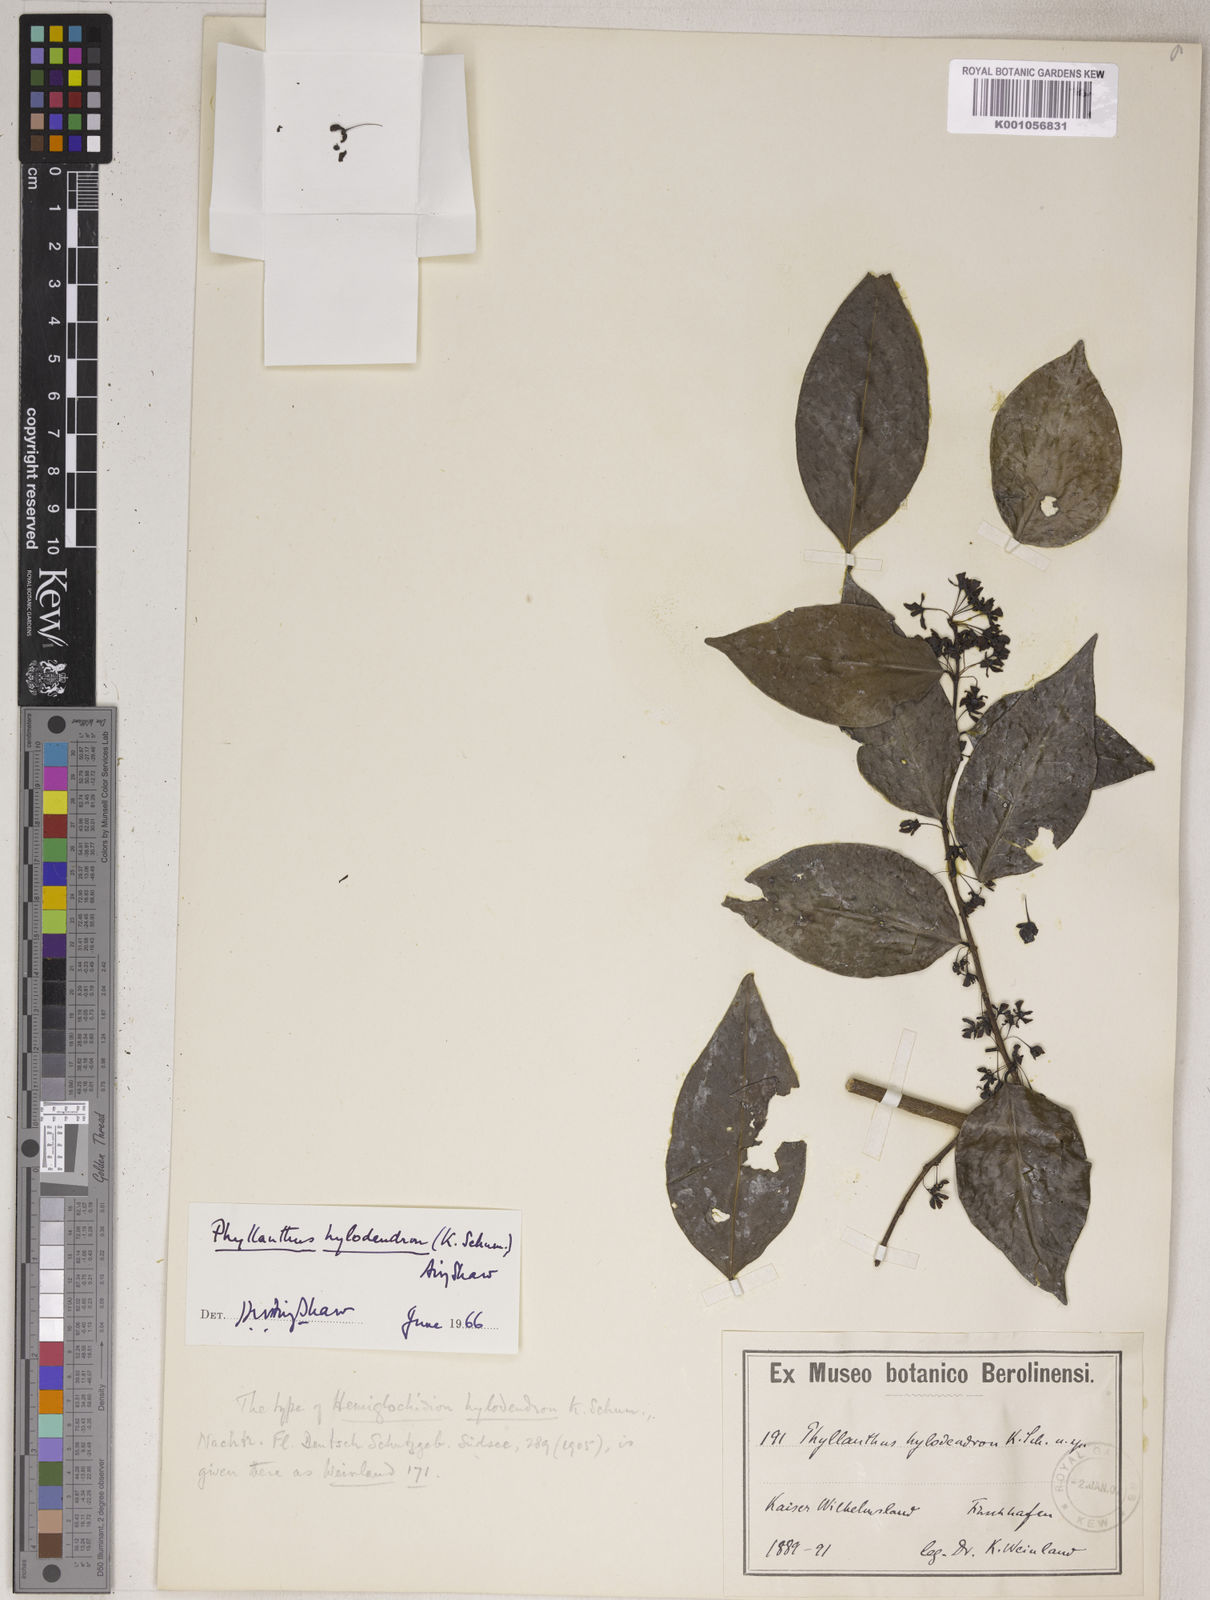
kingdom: Plantae
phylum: Tracheophyta
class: Magnoliopsida
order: Malpighiales
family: Phyllanthaceae
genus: Phyllanthus
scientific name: Phyllanthus finschii
